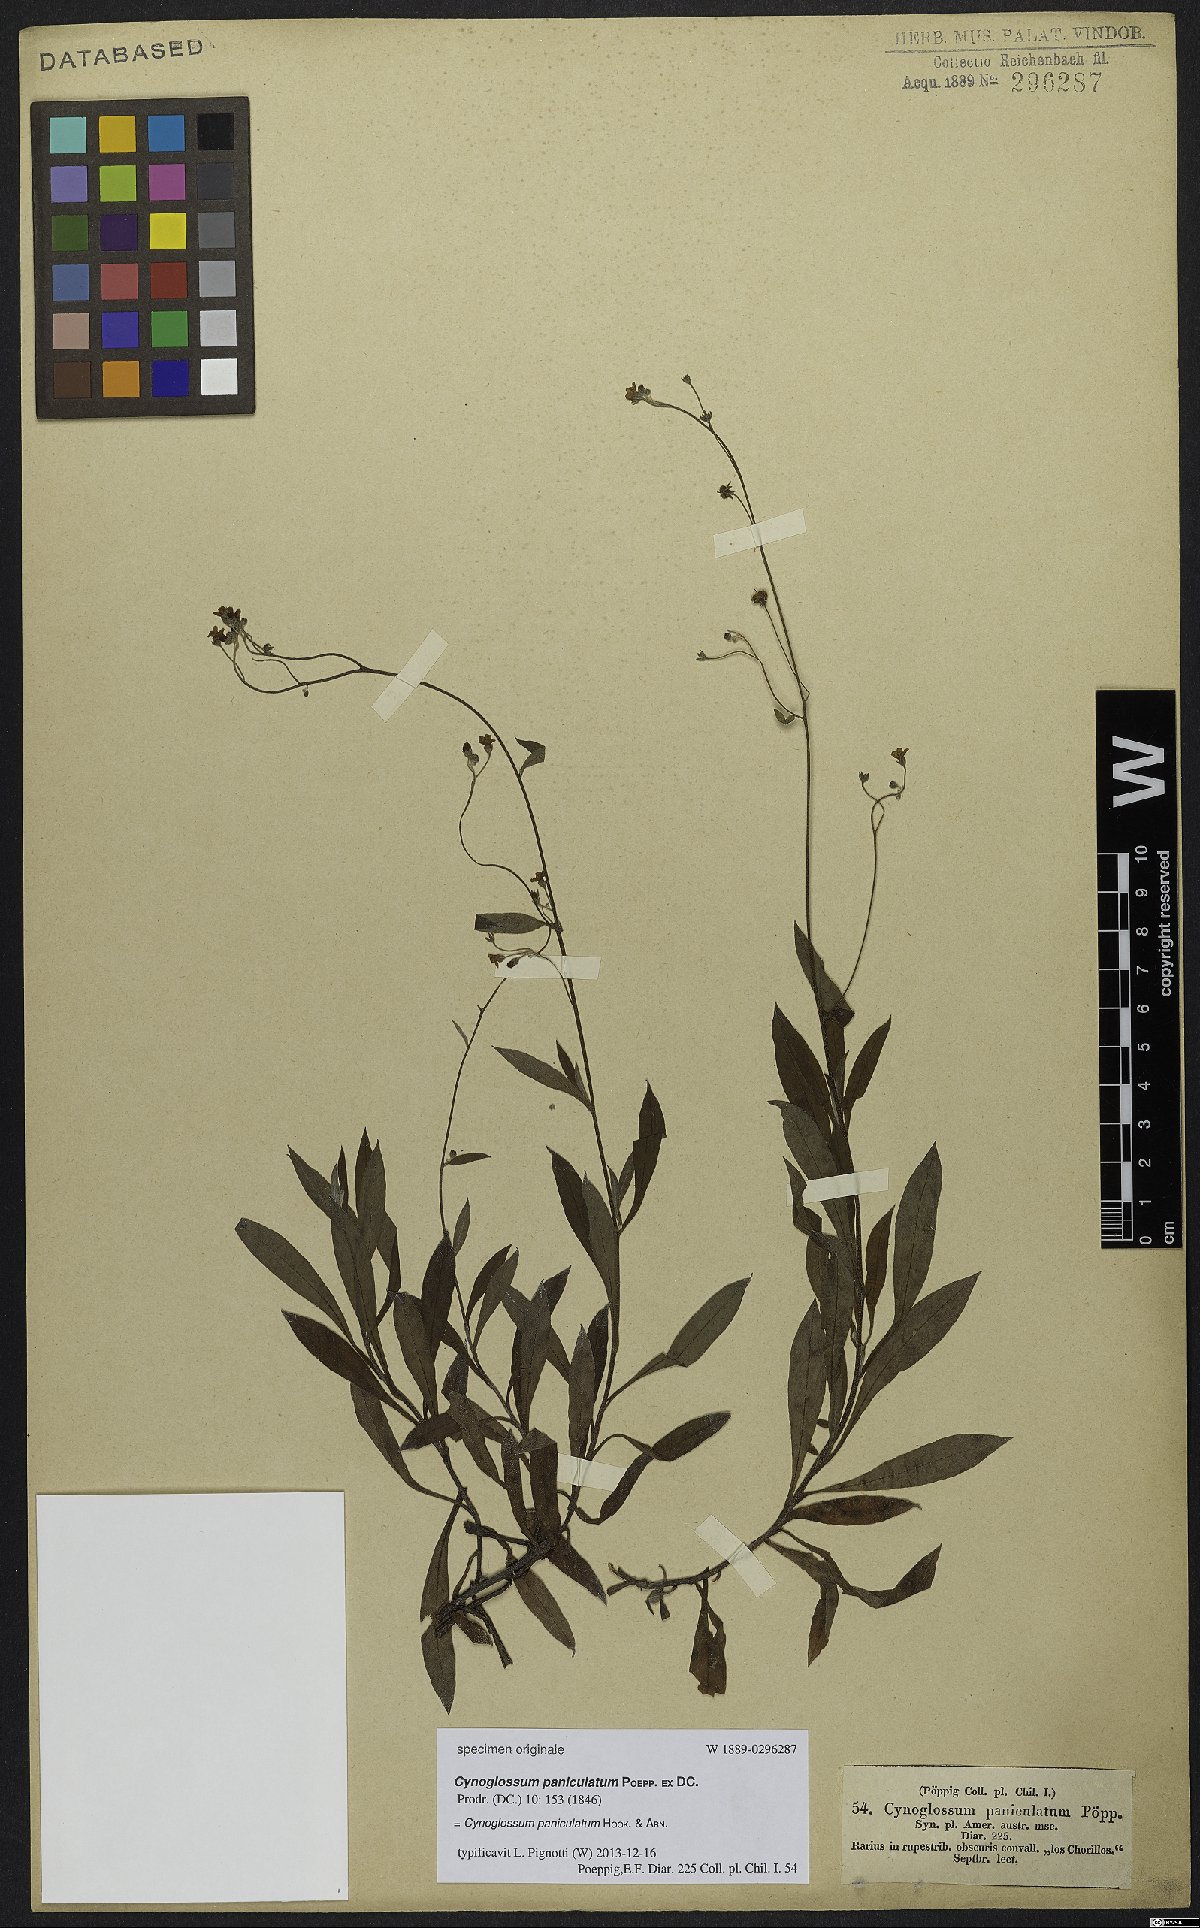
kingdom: Plantae
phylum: Tracheophyta
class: Magnoliopsida
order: Boraginales
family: Boraginaceae
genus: Selkirkia
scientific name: Selkirkia pauciflora
